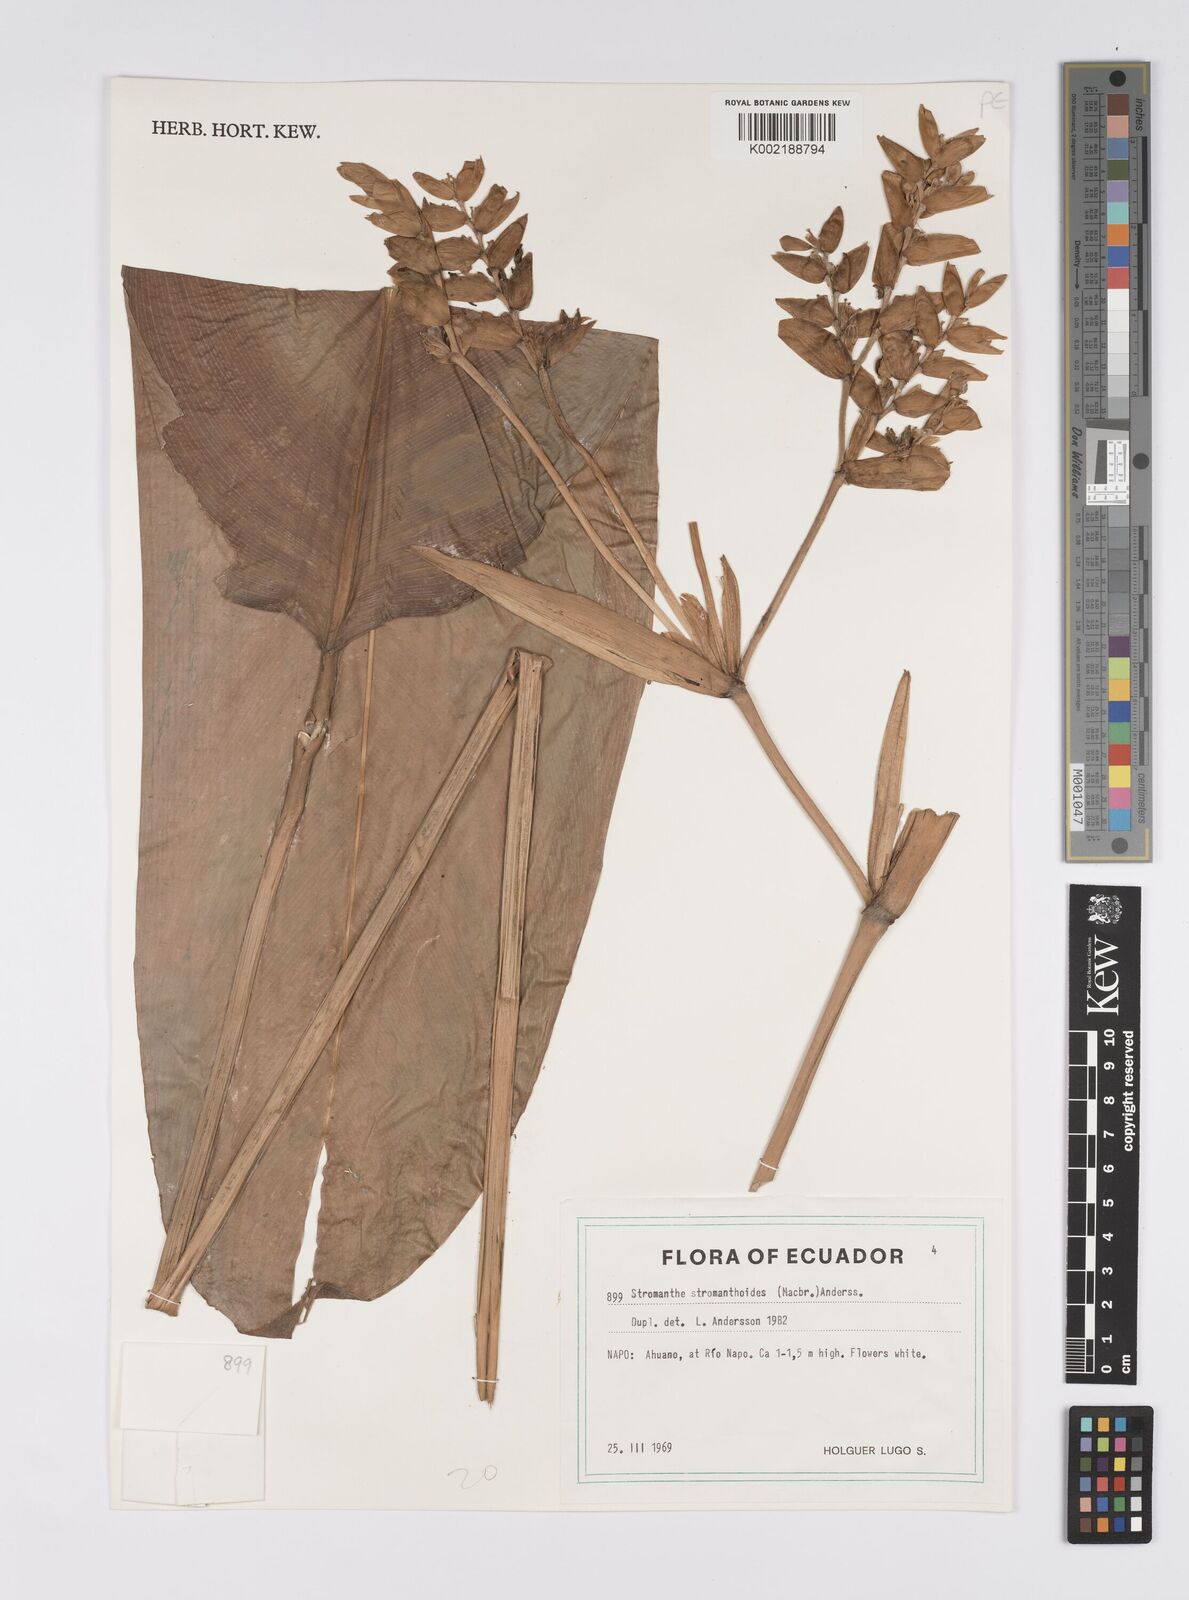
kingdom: Plantae
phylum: Tracheophyta
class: Liliopsida
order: Zingiberales
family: Marantaceae
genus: Stromanthe
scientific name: Stromanthe stromanthoides
